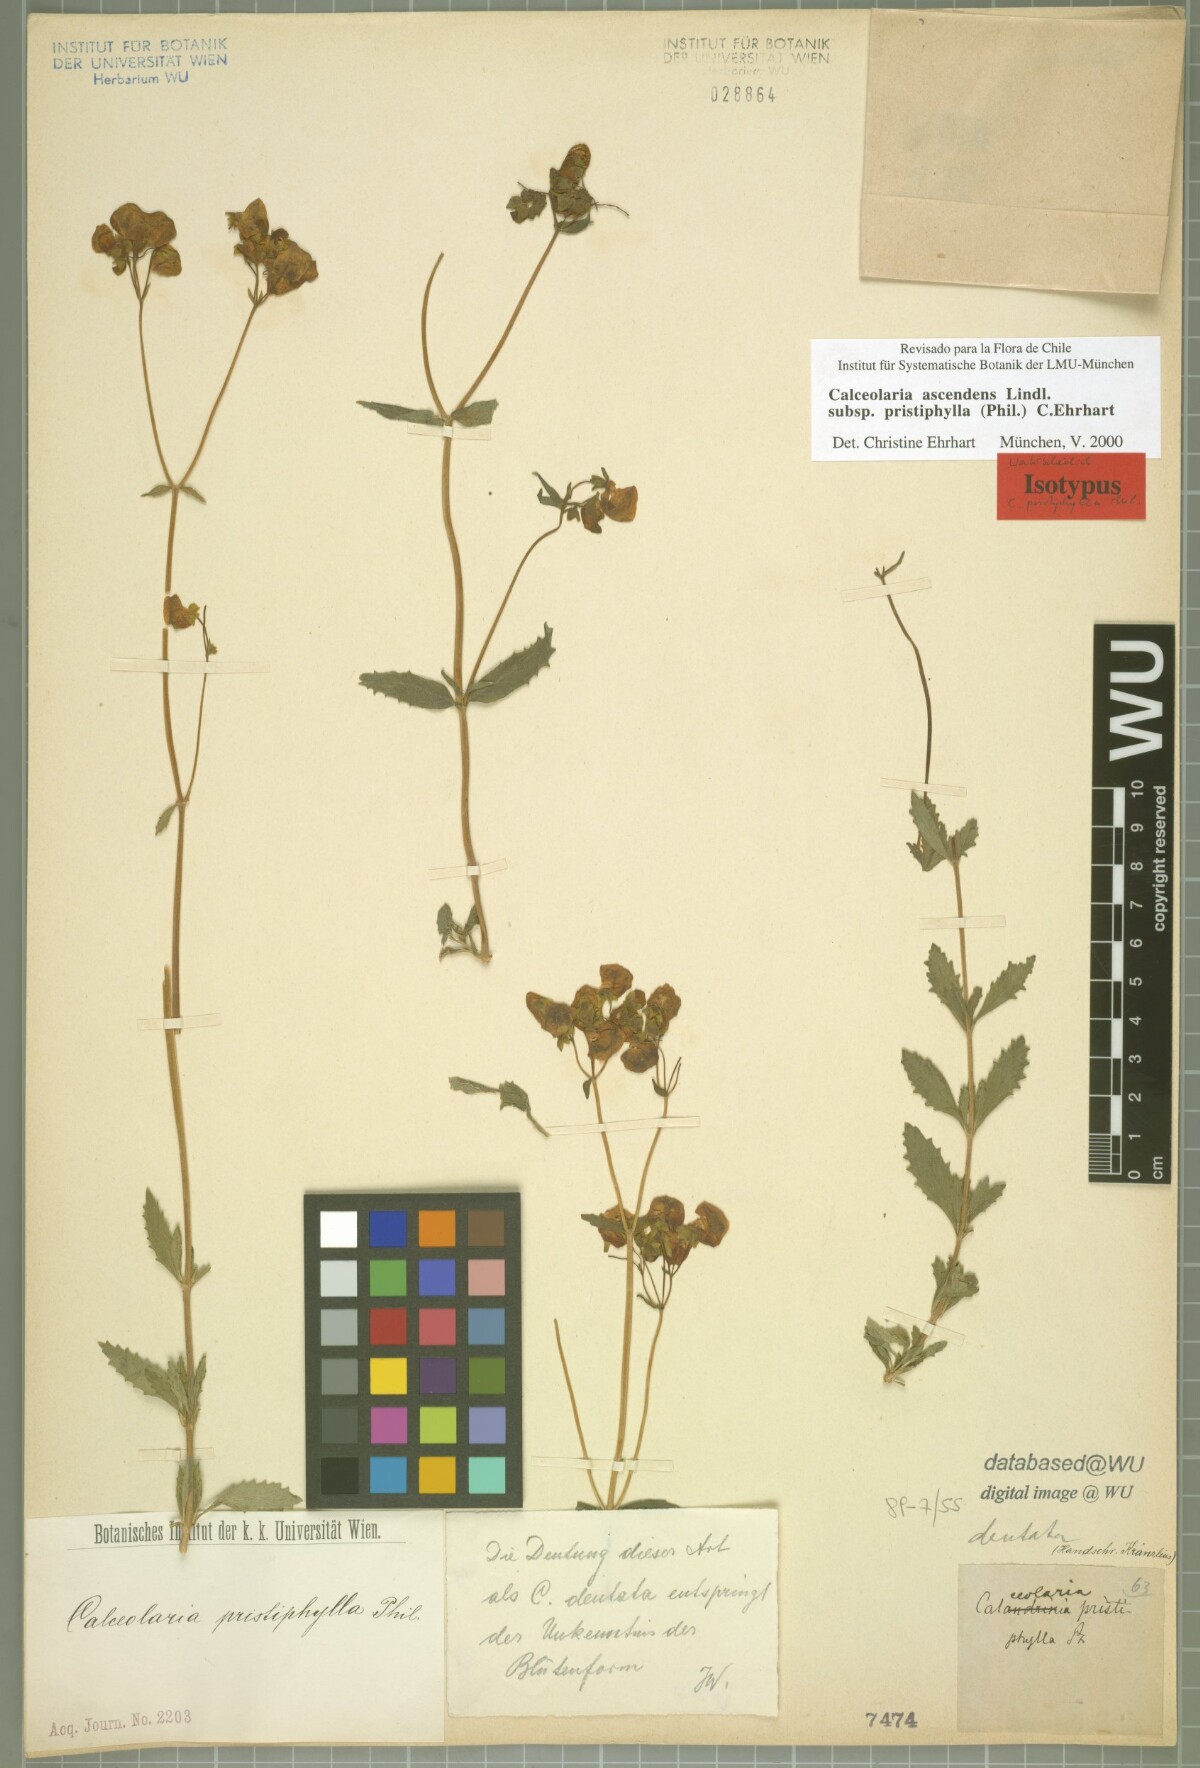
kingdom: Plantae
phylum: Tracheophyta
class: Magnoliopsida
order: Lamiales
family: Calceolariaceae
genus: Calceolaria
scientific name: Calceolaria ascendens
